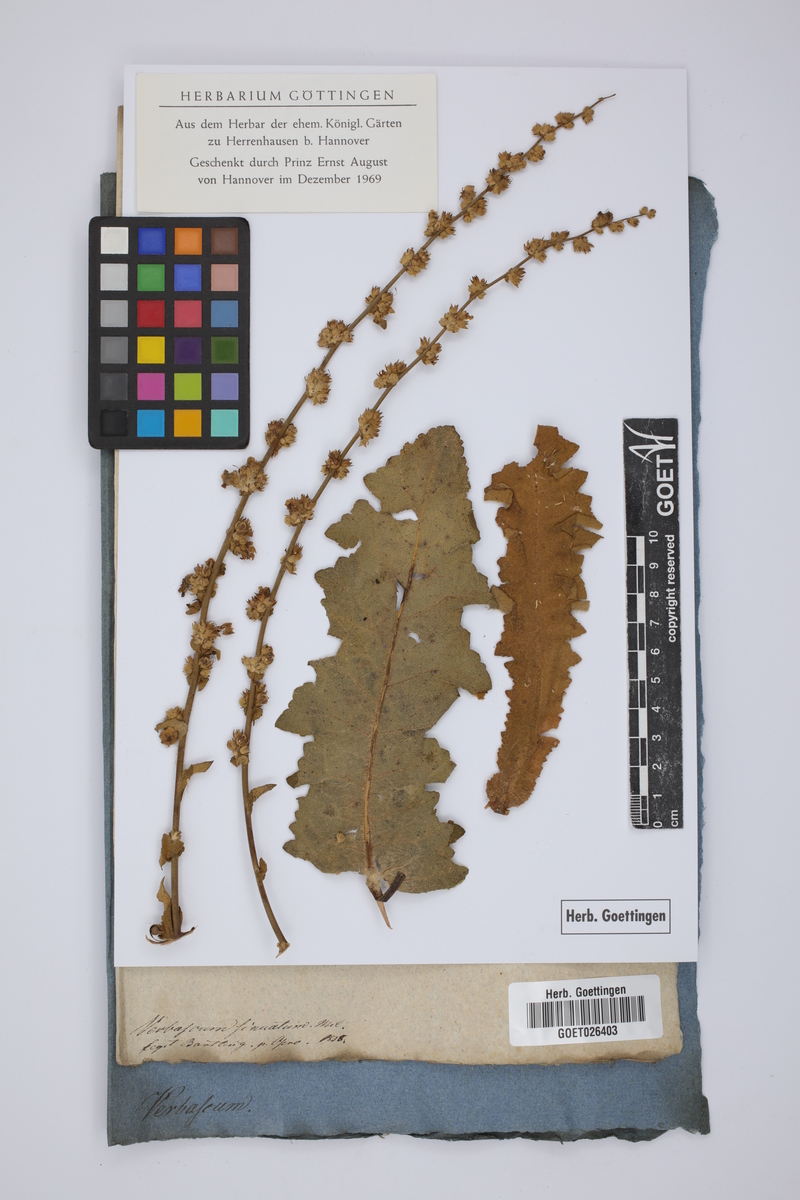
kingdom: Plantae
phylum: Tracheophyta
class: Magnoliopsida
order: Lamiales
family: Scrophulariaceae
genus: Verbascum
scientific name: Verbascum sinuatum
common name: Wavyleaf mullein
